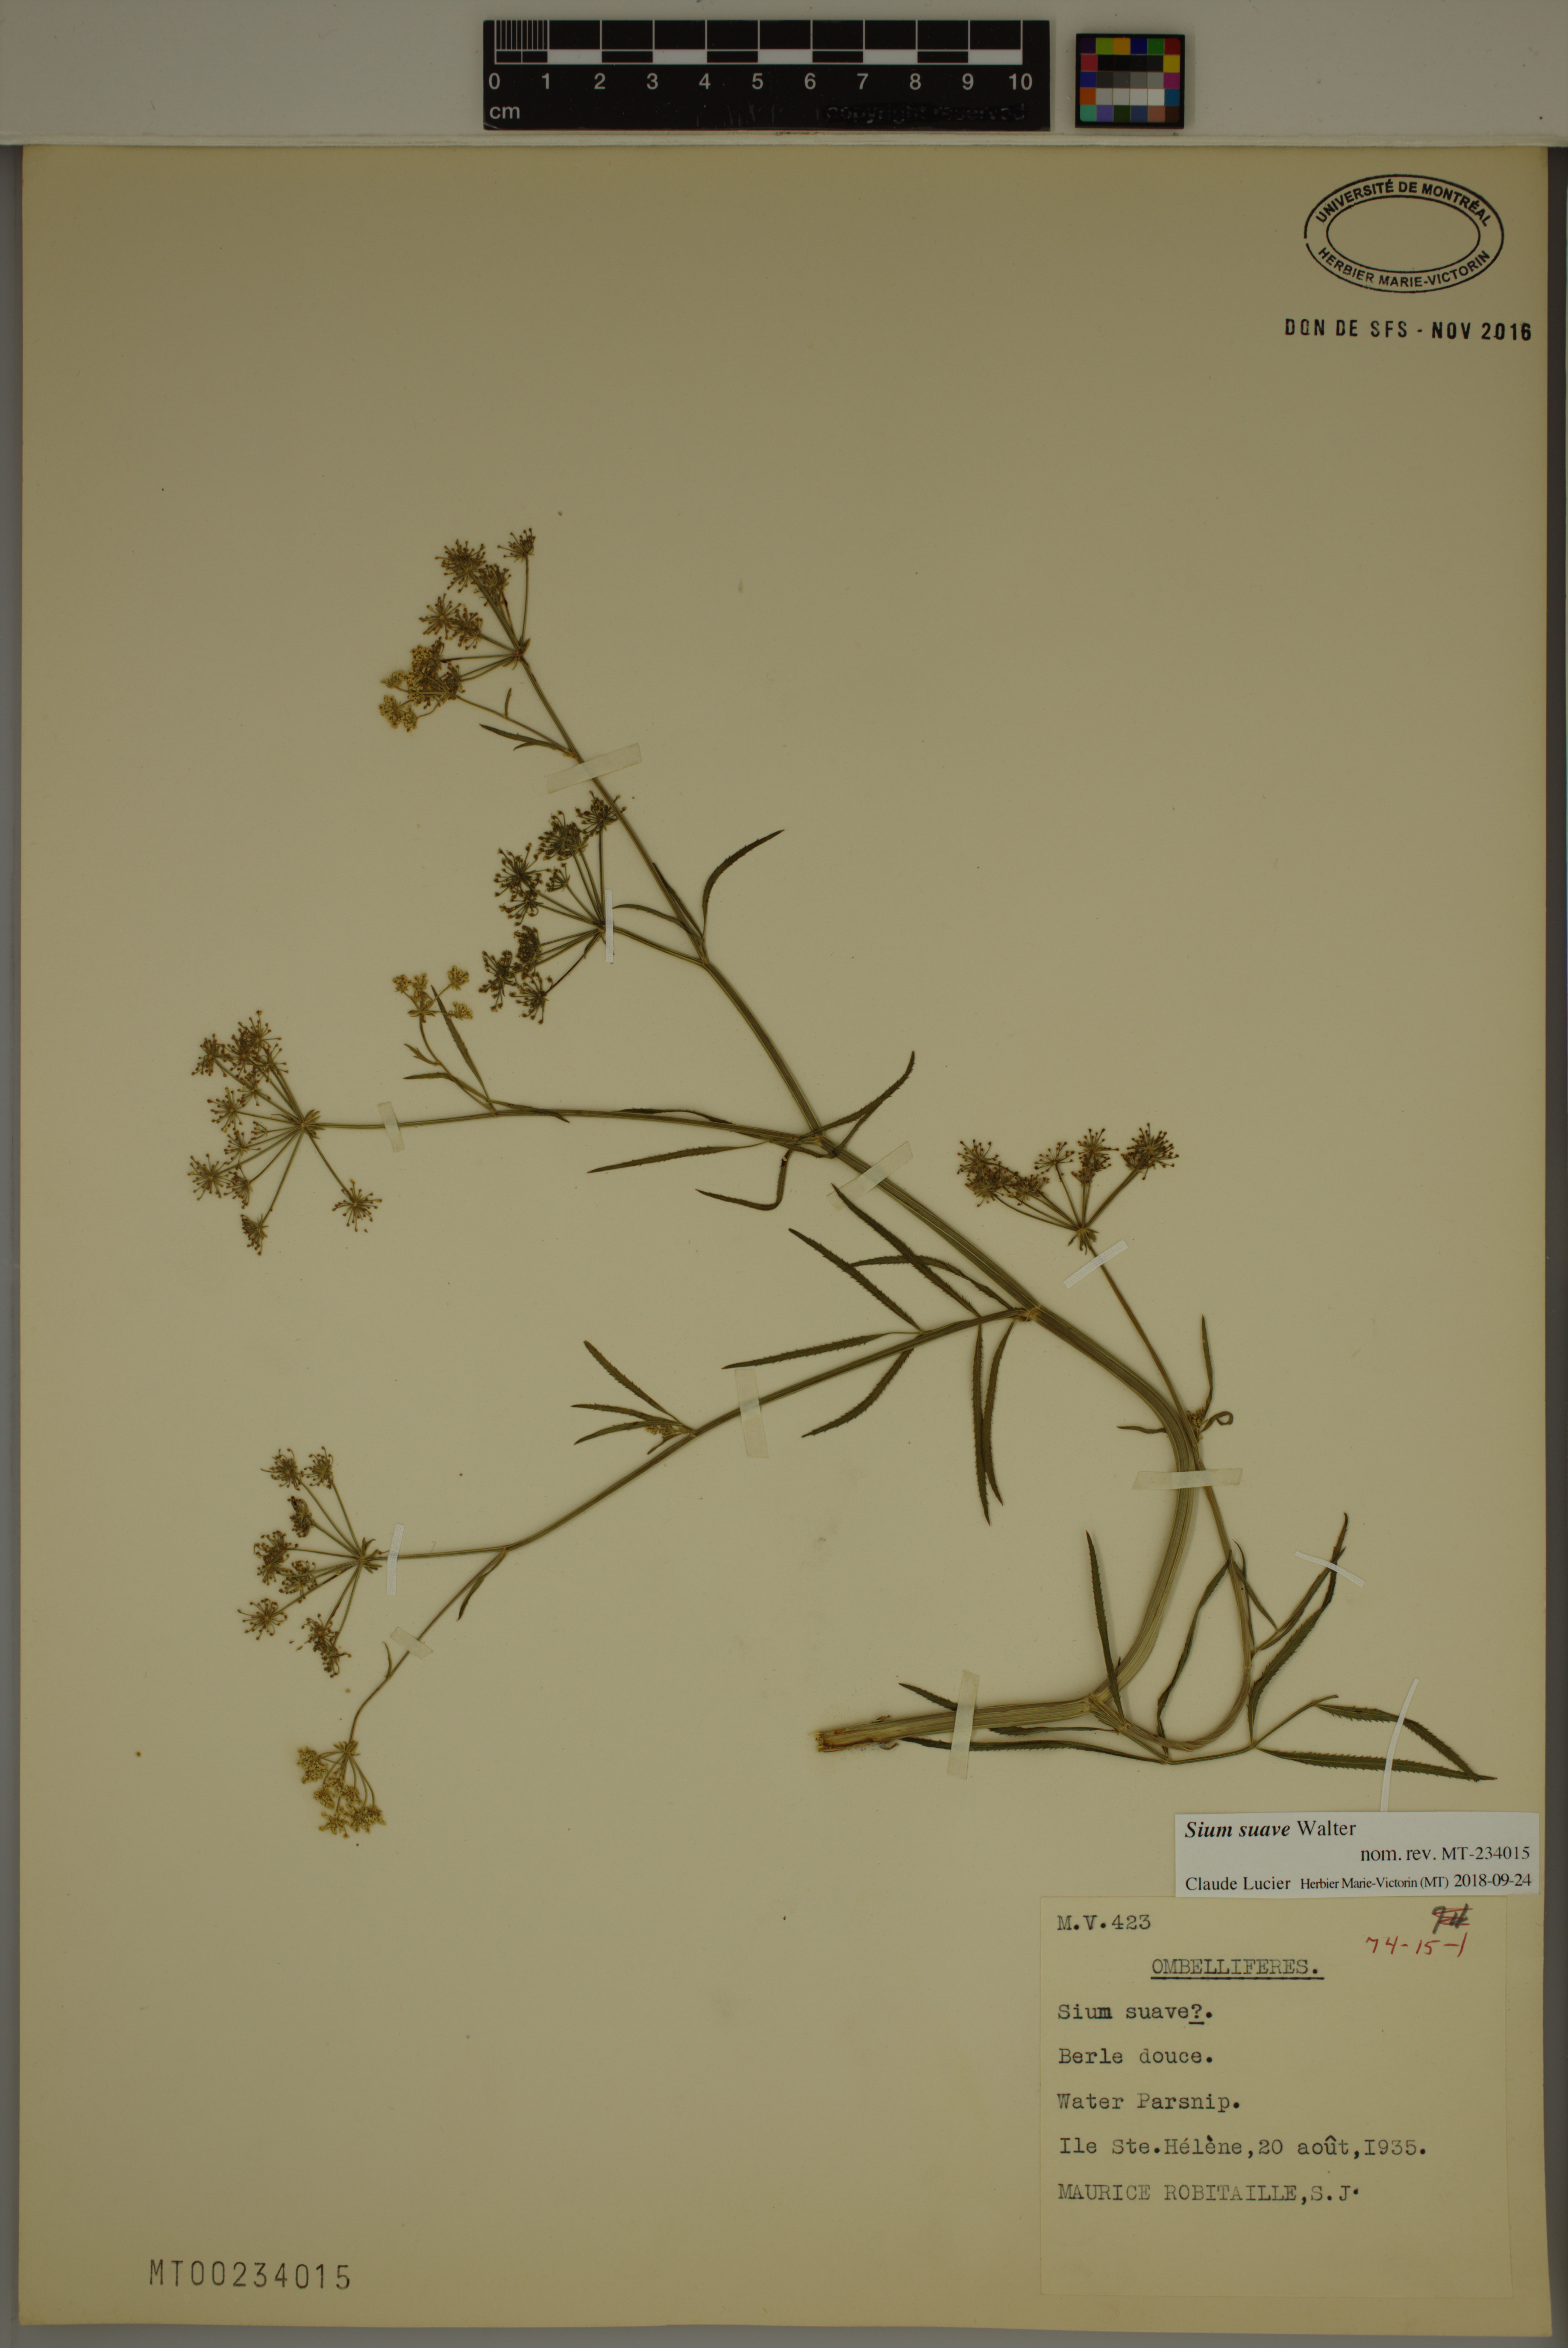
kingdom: Plantae
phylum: Tracheophyta
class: Magnoliopsida
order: Apiales
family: Apiaceae
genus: Sium
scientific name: Sium suave
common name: Hemlock water-parsnip
